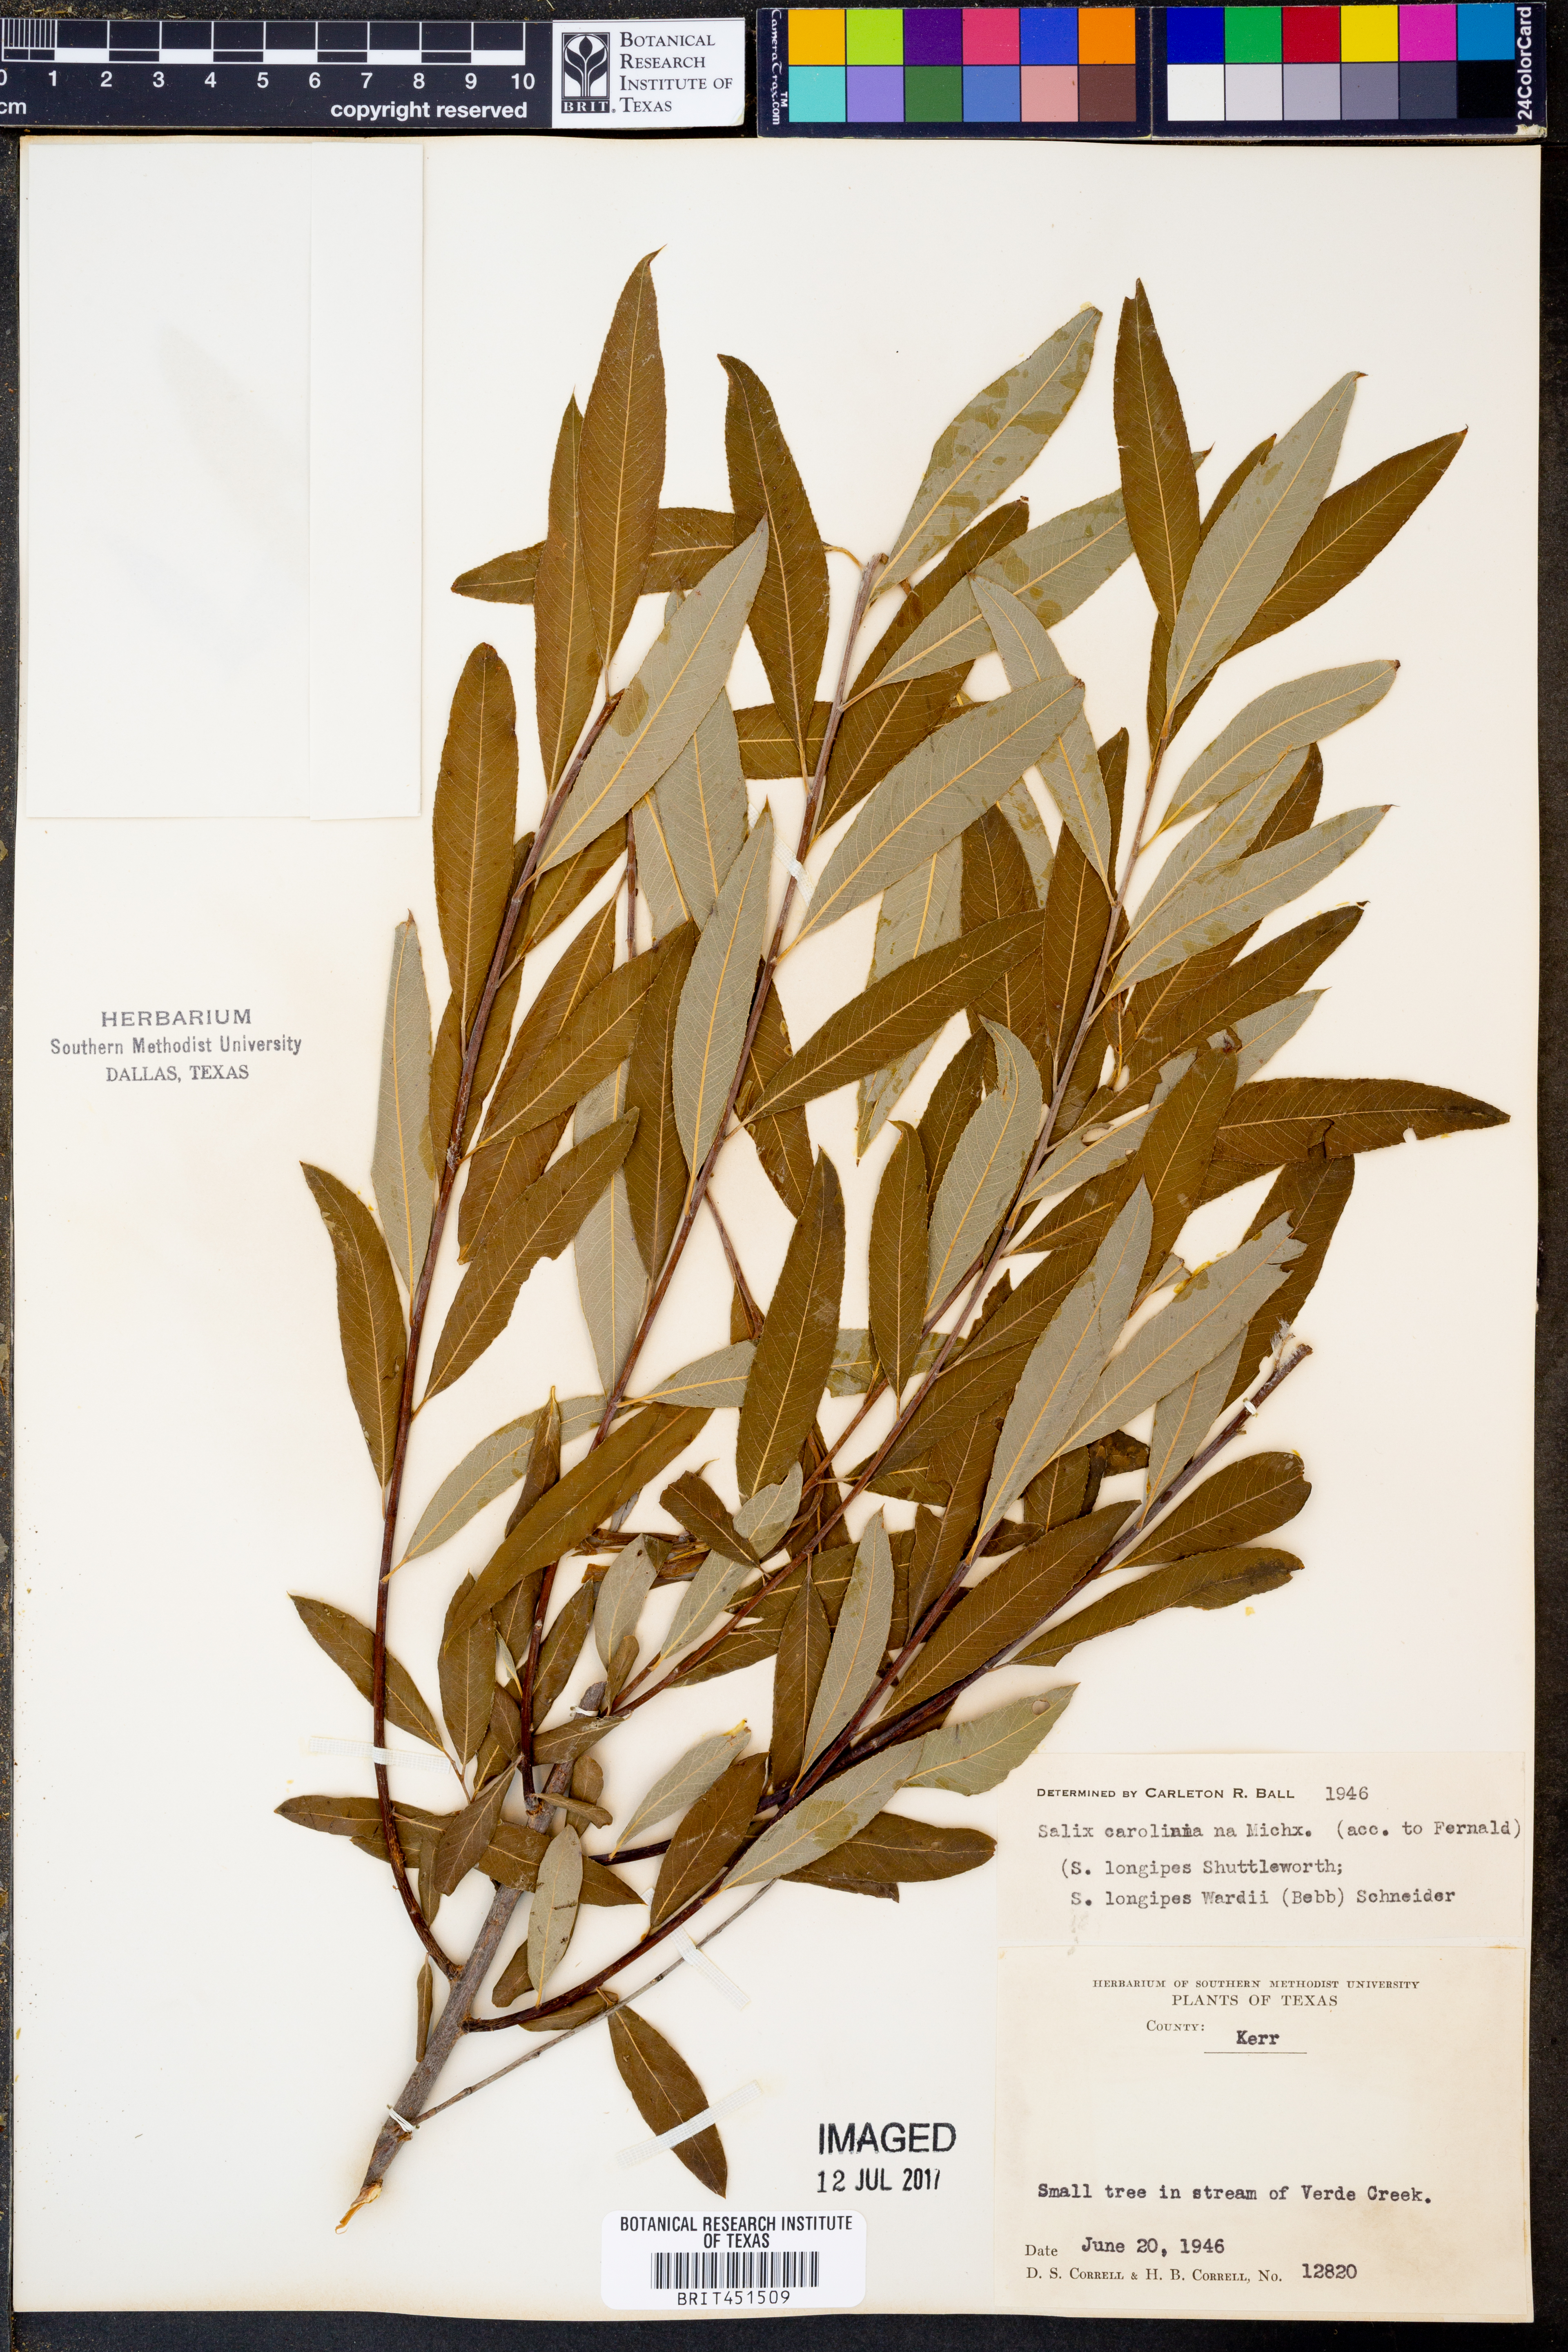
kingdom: Plantae
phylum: Tracheophyta
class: Magnoliopsida
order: Malpighiales
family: Salicaceae
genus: Salix
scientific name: Salix caroliniana
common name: Carolina willow
